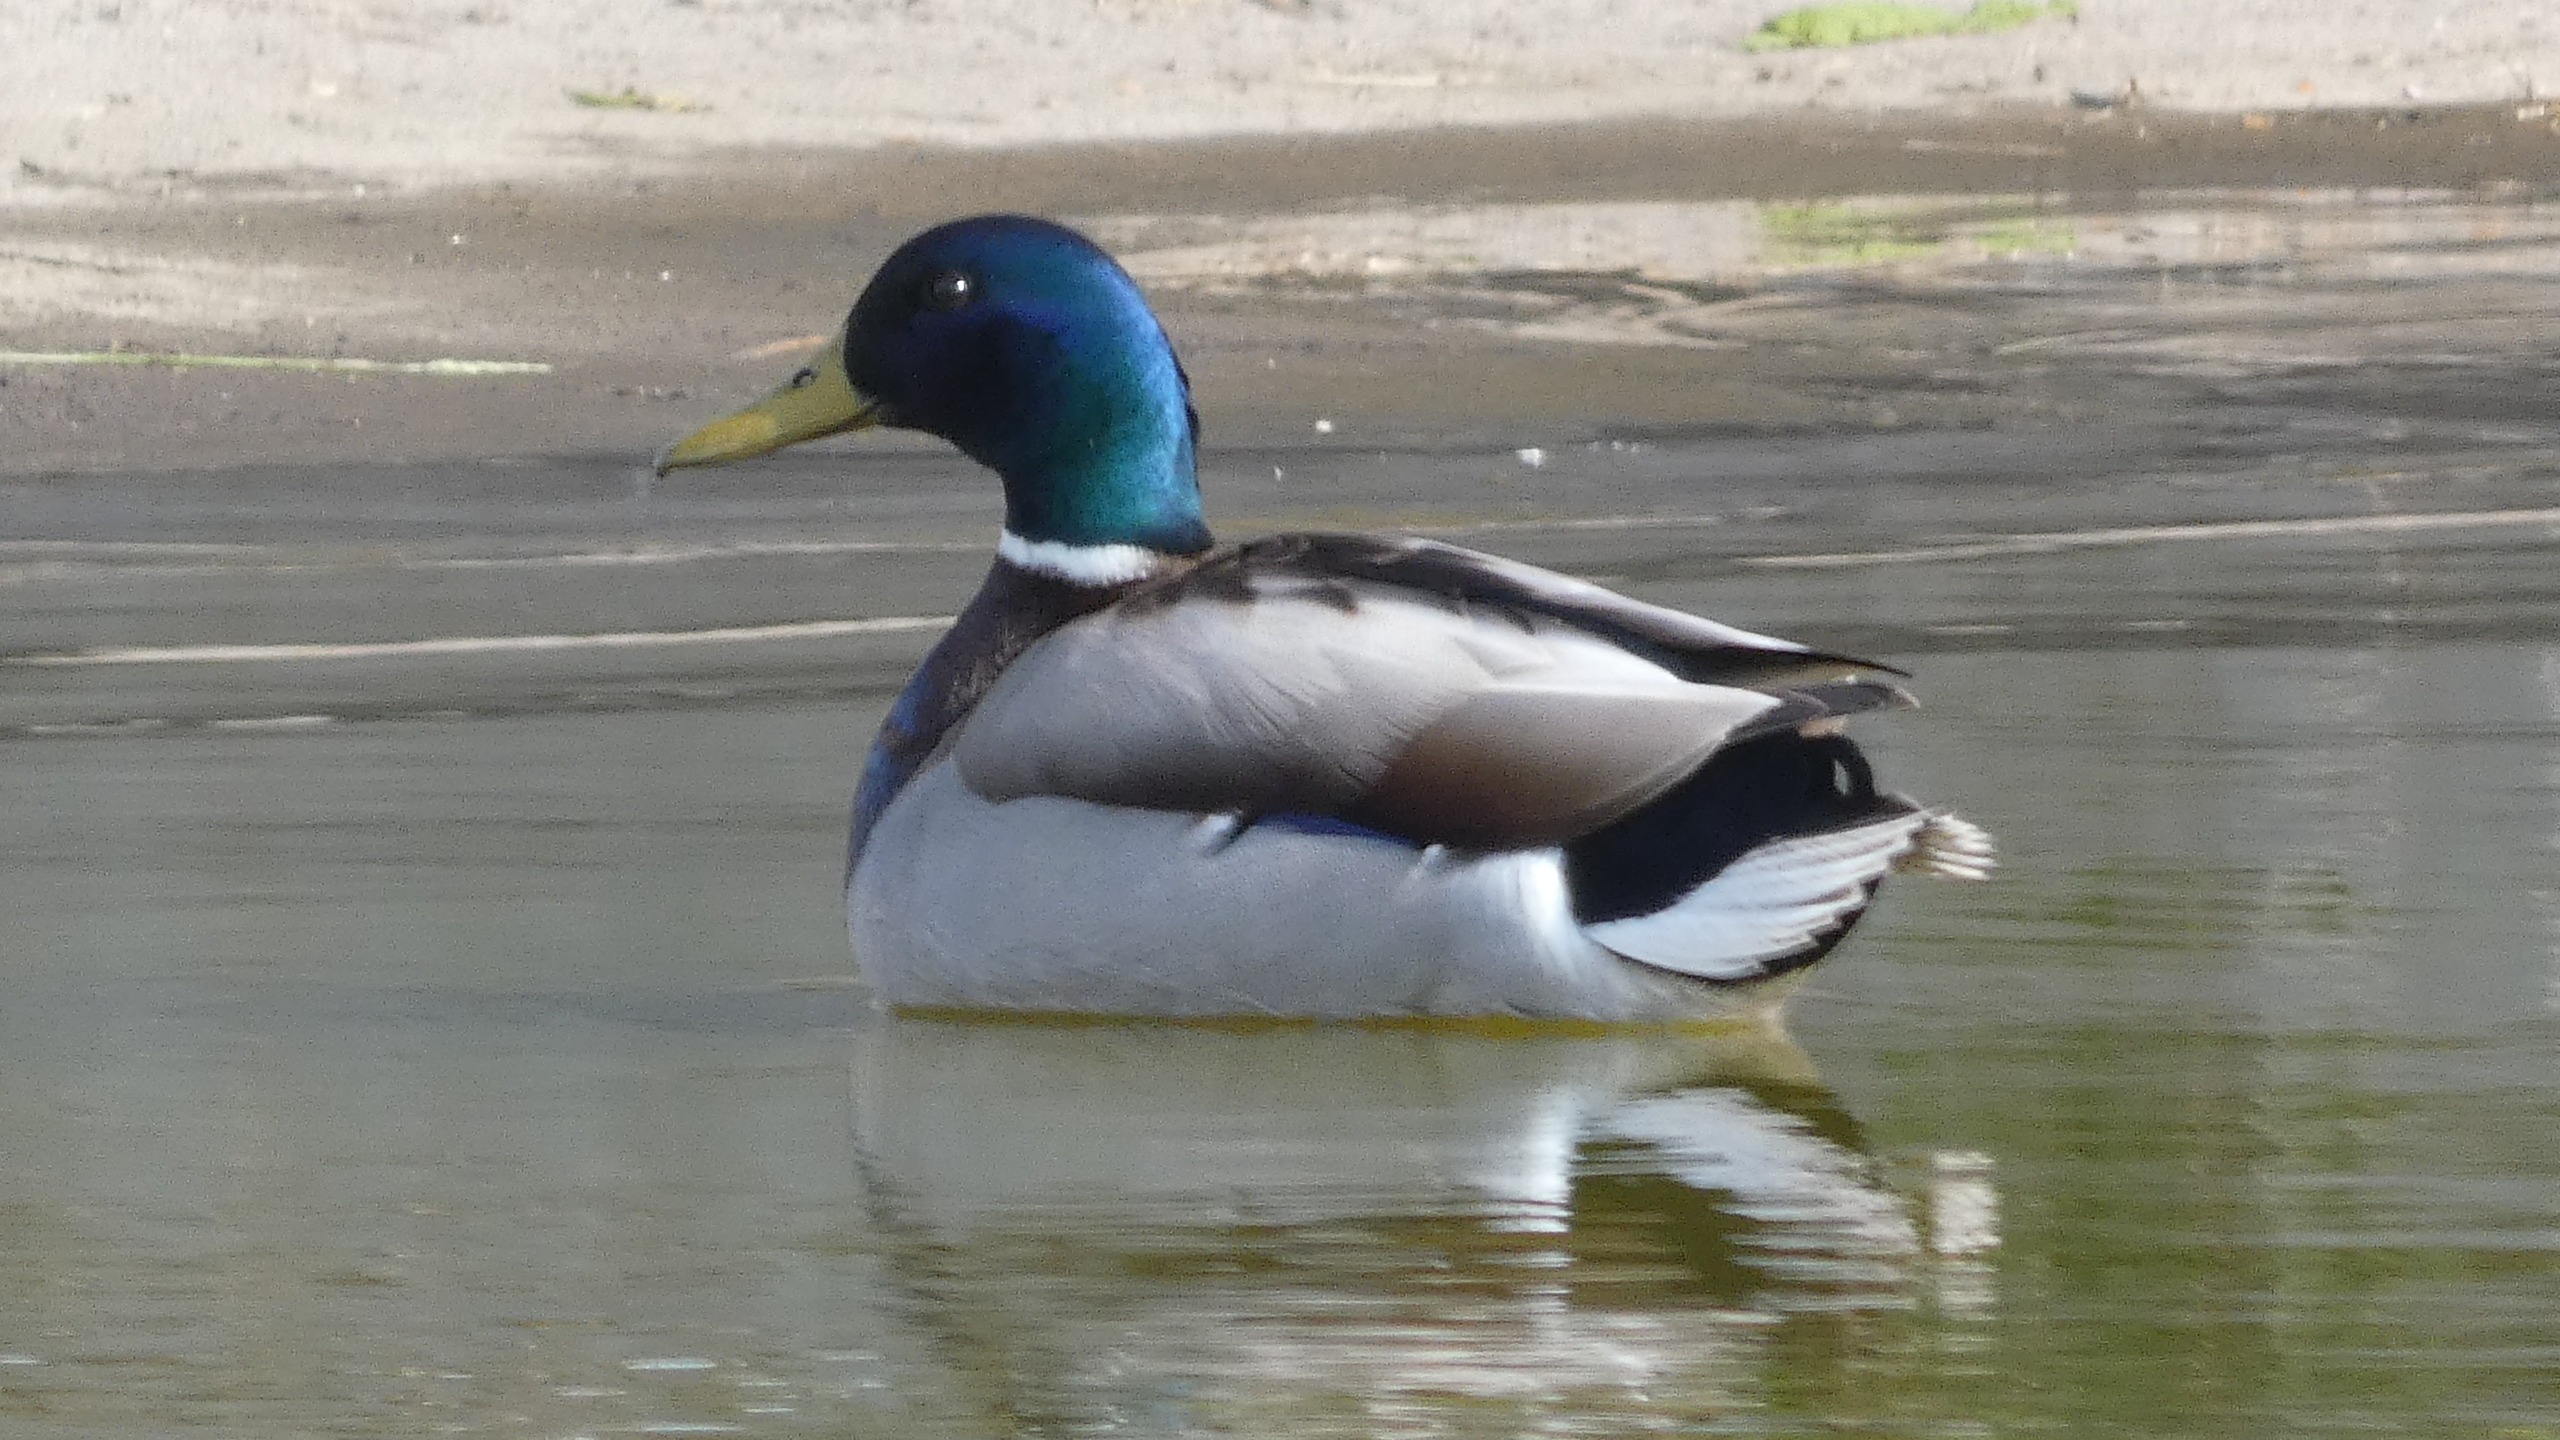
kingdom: Animalia
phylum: Chordata
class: Aves
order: Anseriformes
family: Anatidae
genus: Anas
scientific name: Anas platyrhynchos
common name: Gråand
